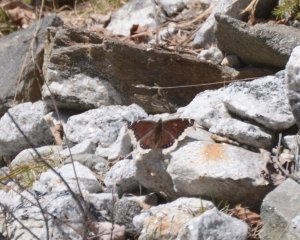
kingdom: Animalia
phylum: Arthropoda
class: Insecta
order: Lepidoptera
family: Nymphalidae
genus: Nymphalis
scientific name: Nymphalis antiopa
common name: Mourning Cloak
